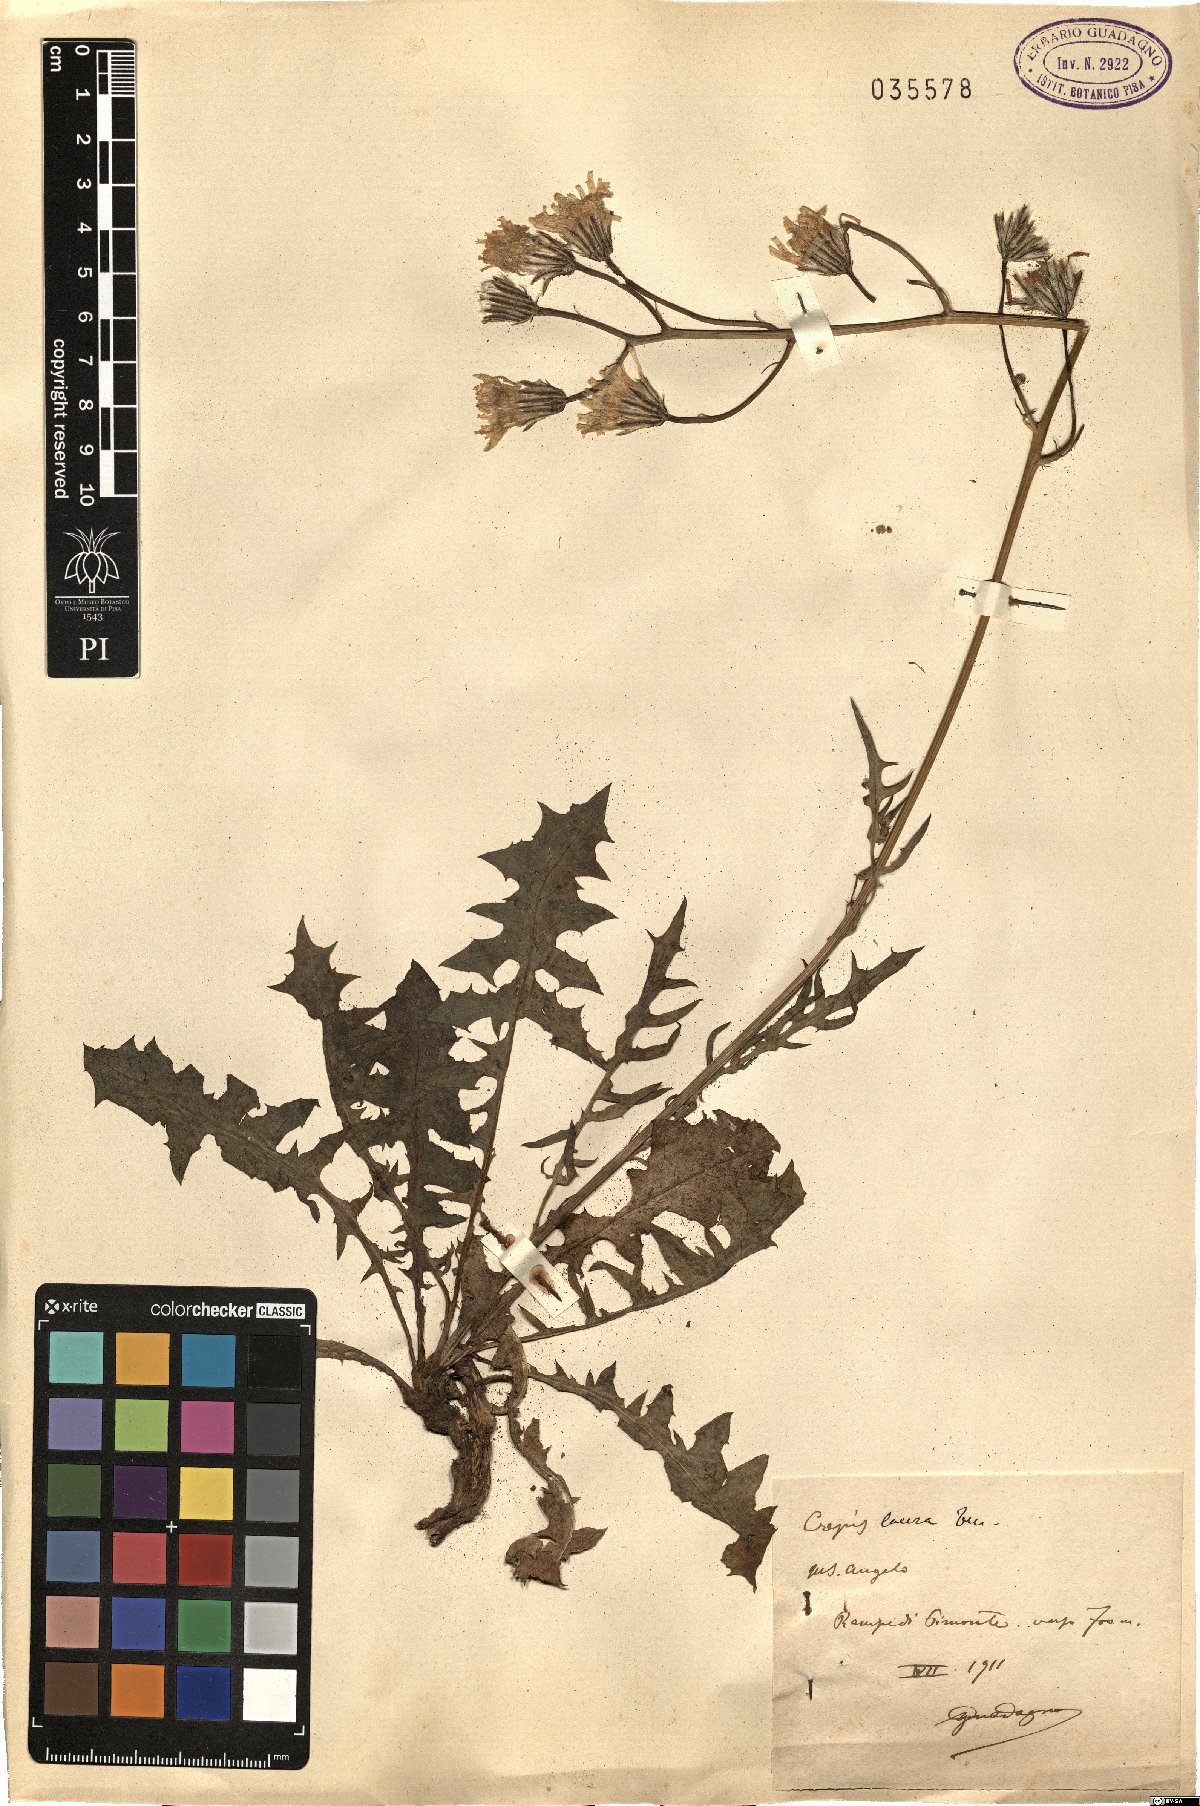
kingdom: Plantae
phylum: Tracheophyta
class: Magnoliopsida
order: Asterales
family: Asteraceae
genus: Crepis
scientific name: Crepis lacera
